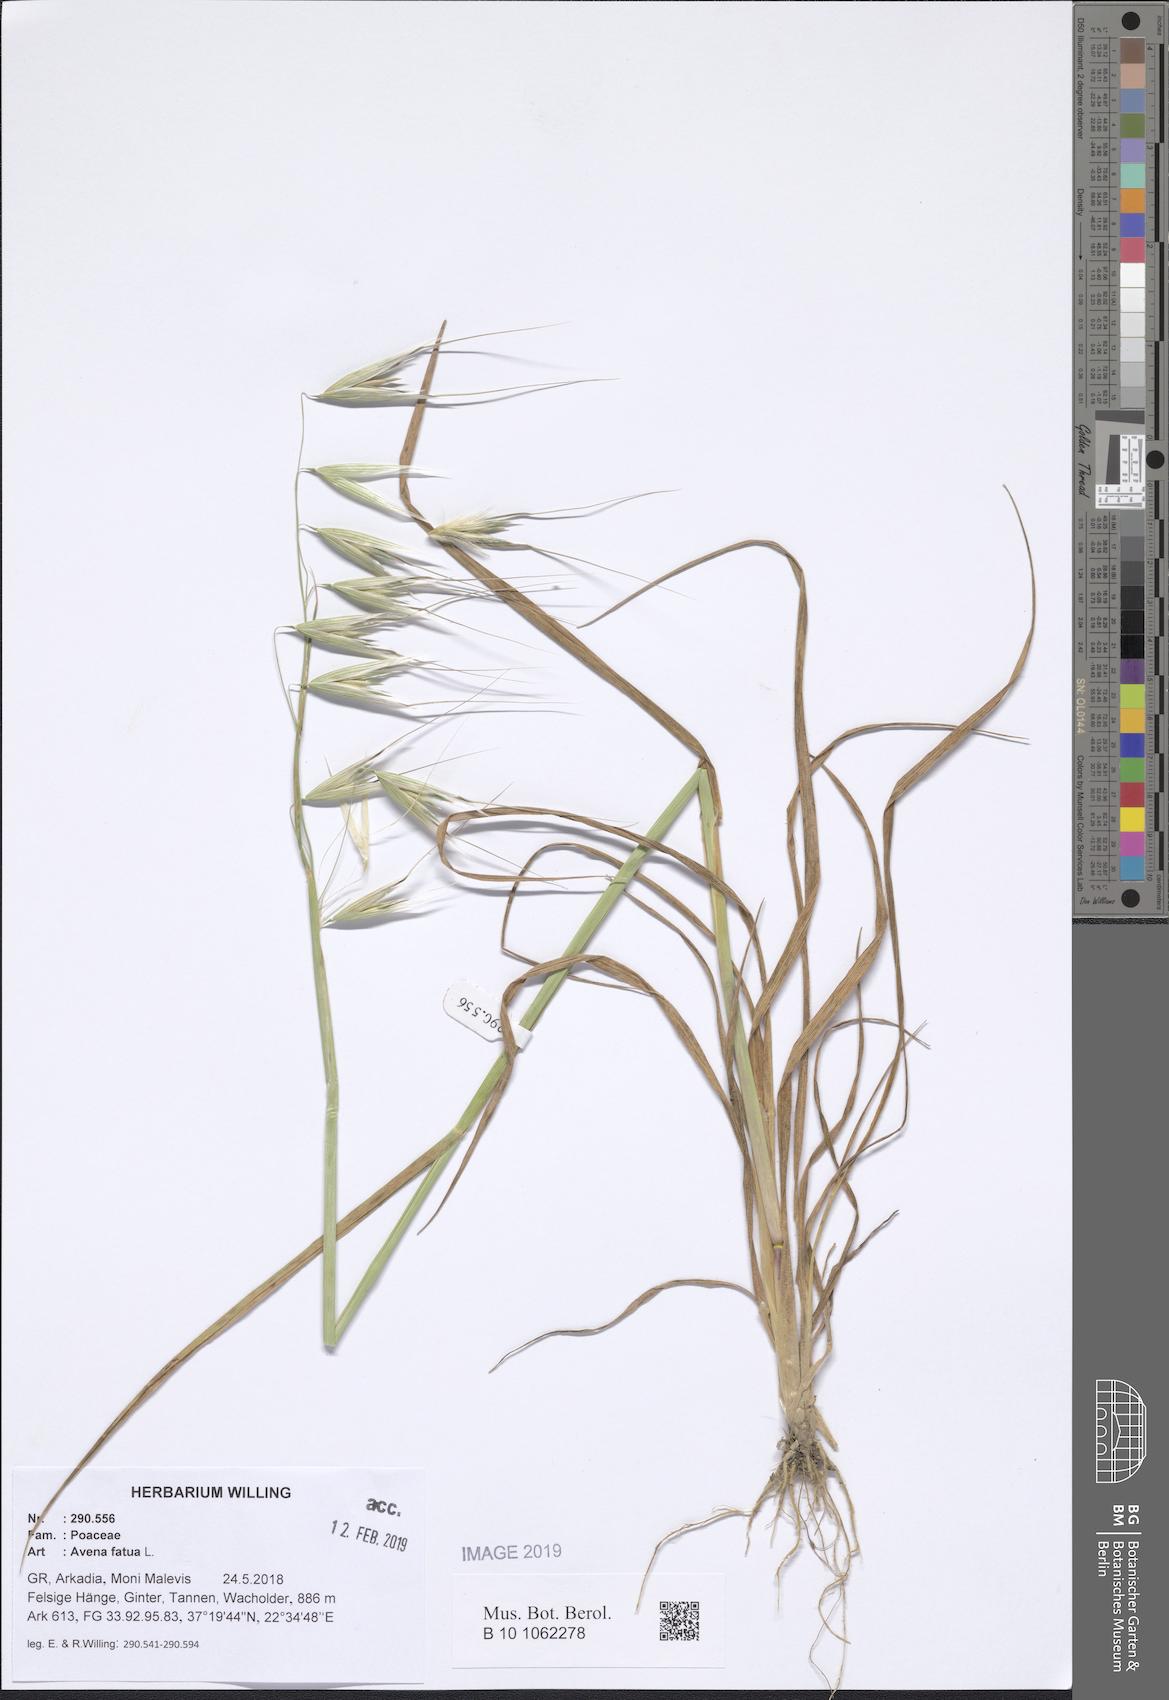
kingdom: Plantae
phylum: Tracheophyta
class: Liliopsida
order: Poales
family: Poaceae
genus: Avena
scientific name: Avena fatua
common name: Wild oat
